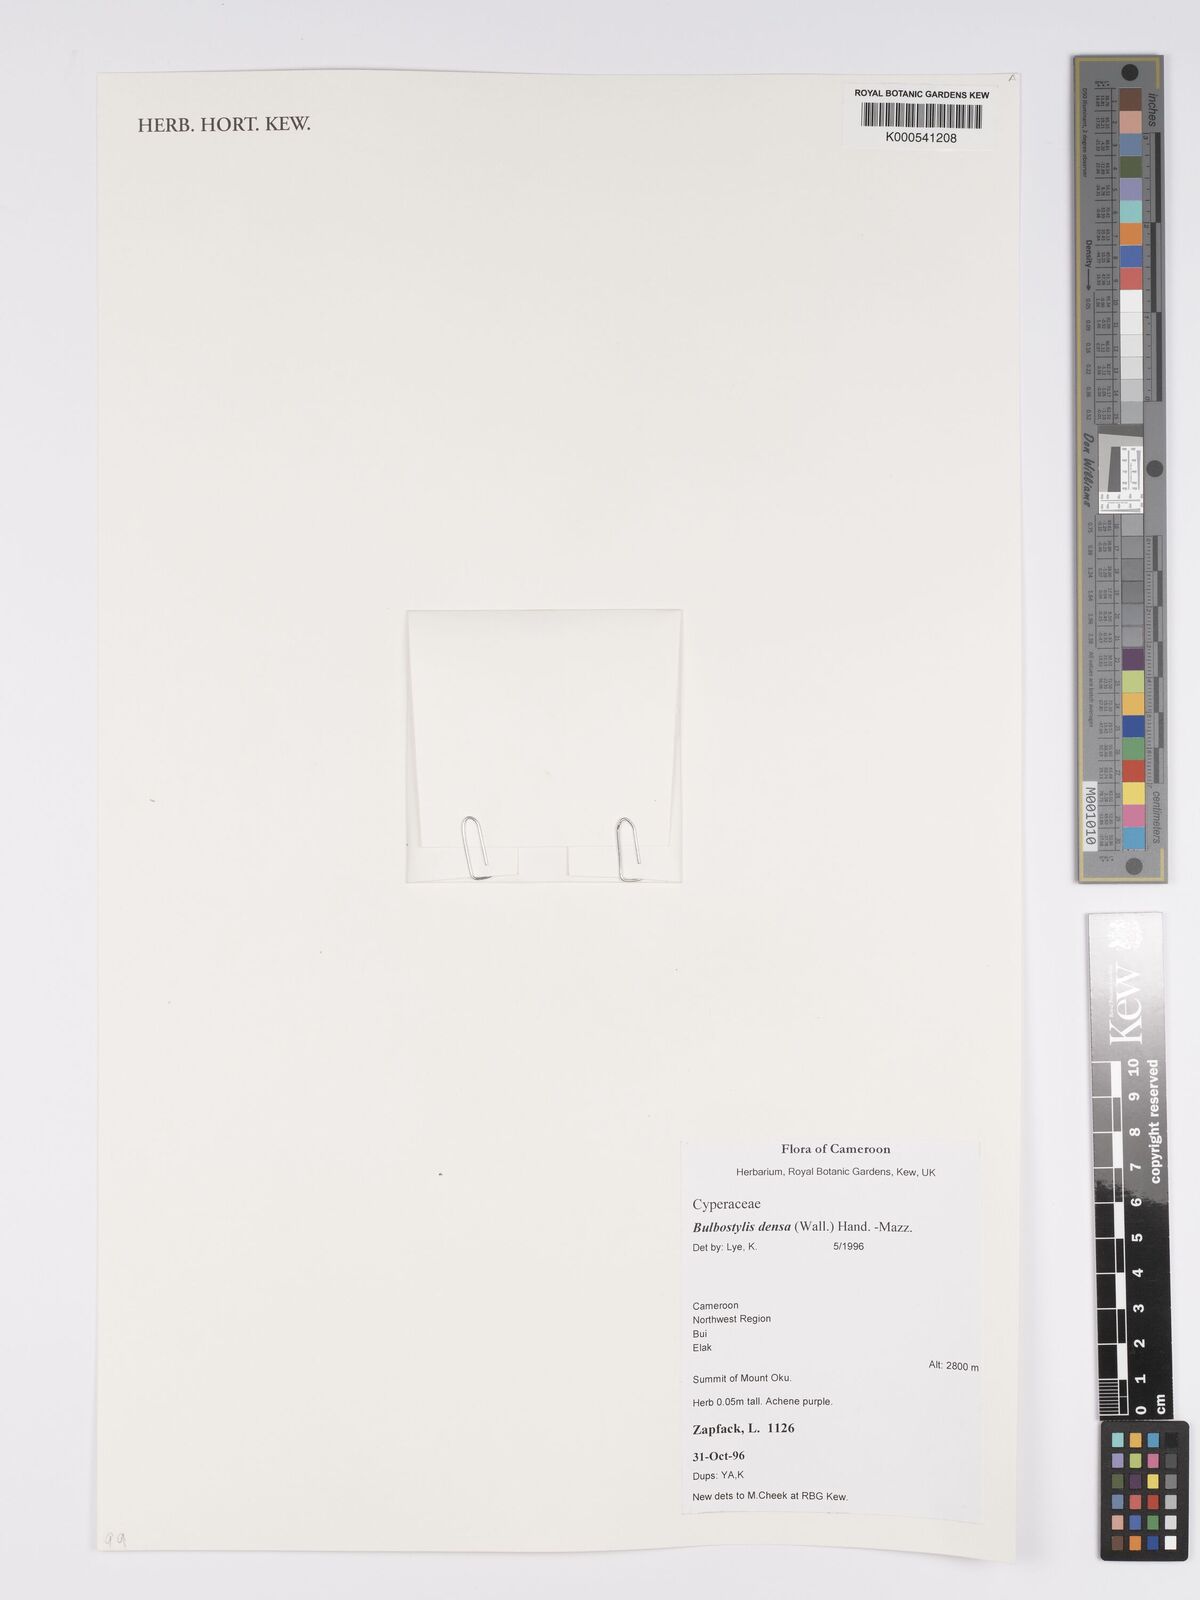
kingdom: Plantae
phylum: Tracheophyta
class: Liliopsida
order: Poales
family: Cyperaceae
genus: Bulbostylis
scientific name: Bulbostylis densa
